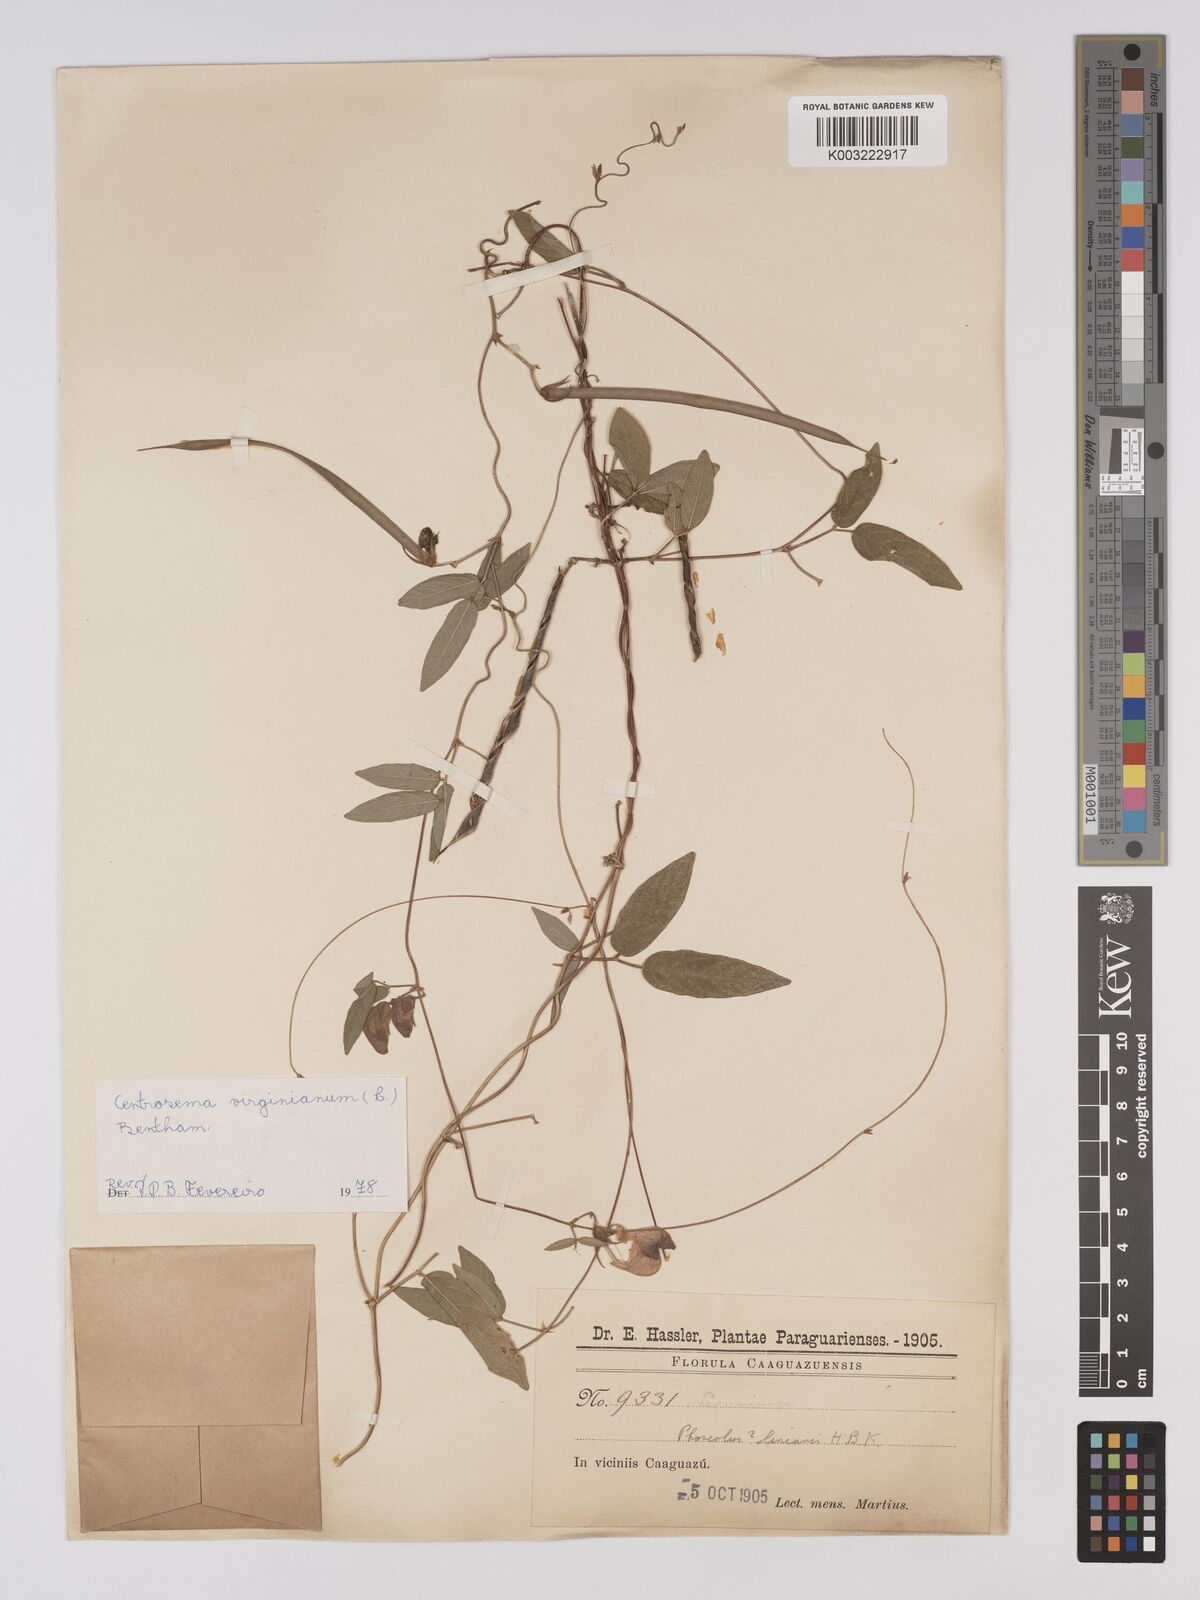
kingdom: Plantae
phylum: Tracheophyta
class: Magnoliopsida
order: Fabales
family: Fabaceae
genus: Centrosema
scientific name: Centrosema virginianum
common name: Butterfly-pea
